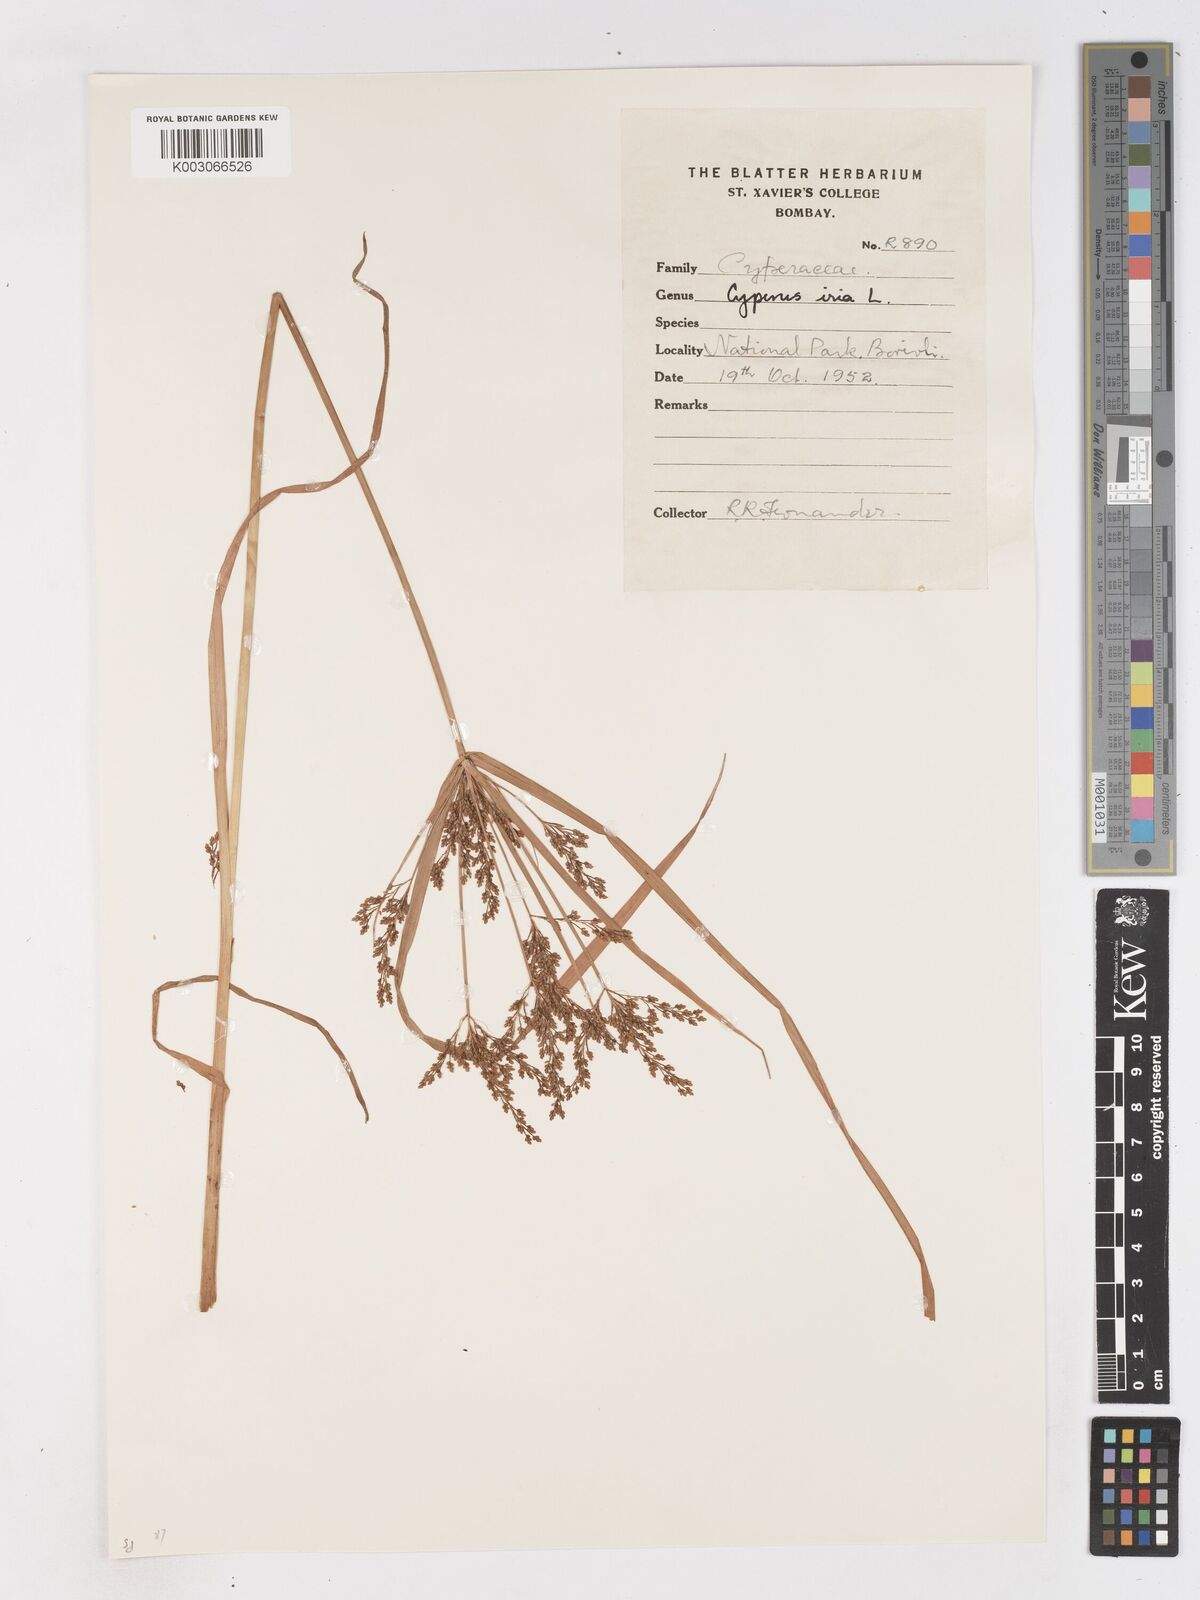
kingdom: Plantae
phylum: Tracheophyta
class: Liliopsida
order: Poales
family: Cyperaceae
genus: Cyperus
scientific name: Cyperus iria
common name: Ricefield flatsedge
